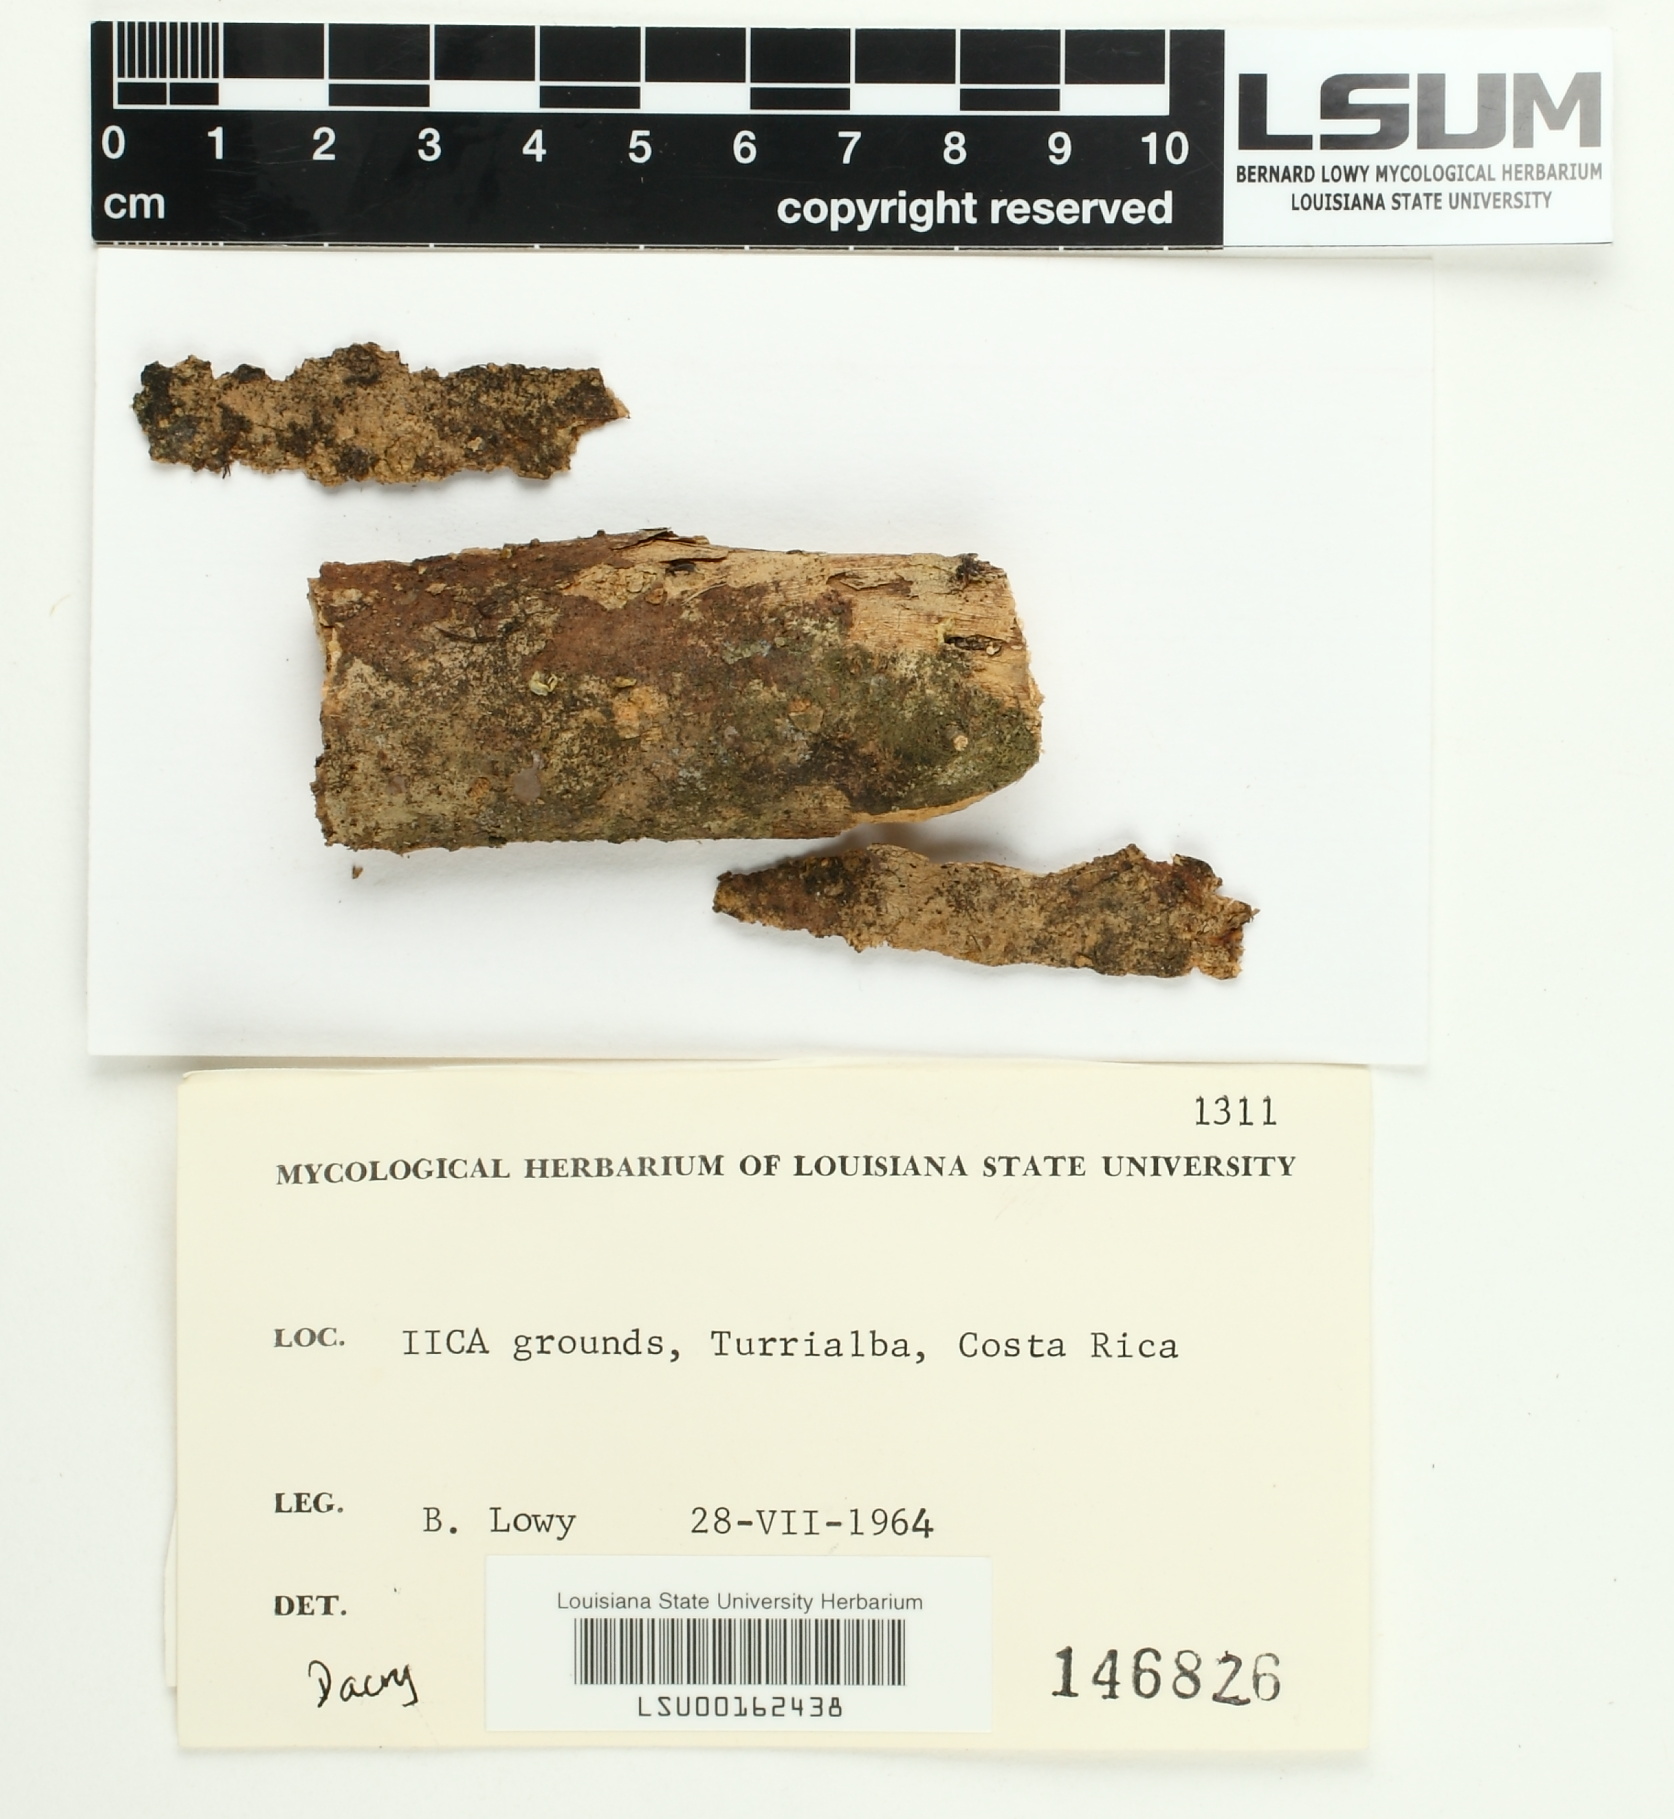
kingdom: Fungi
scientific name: Fungi
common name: Fungi
